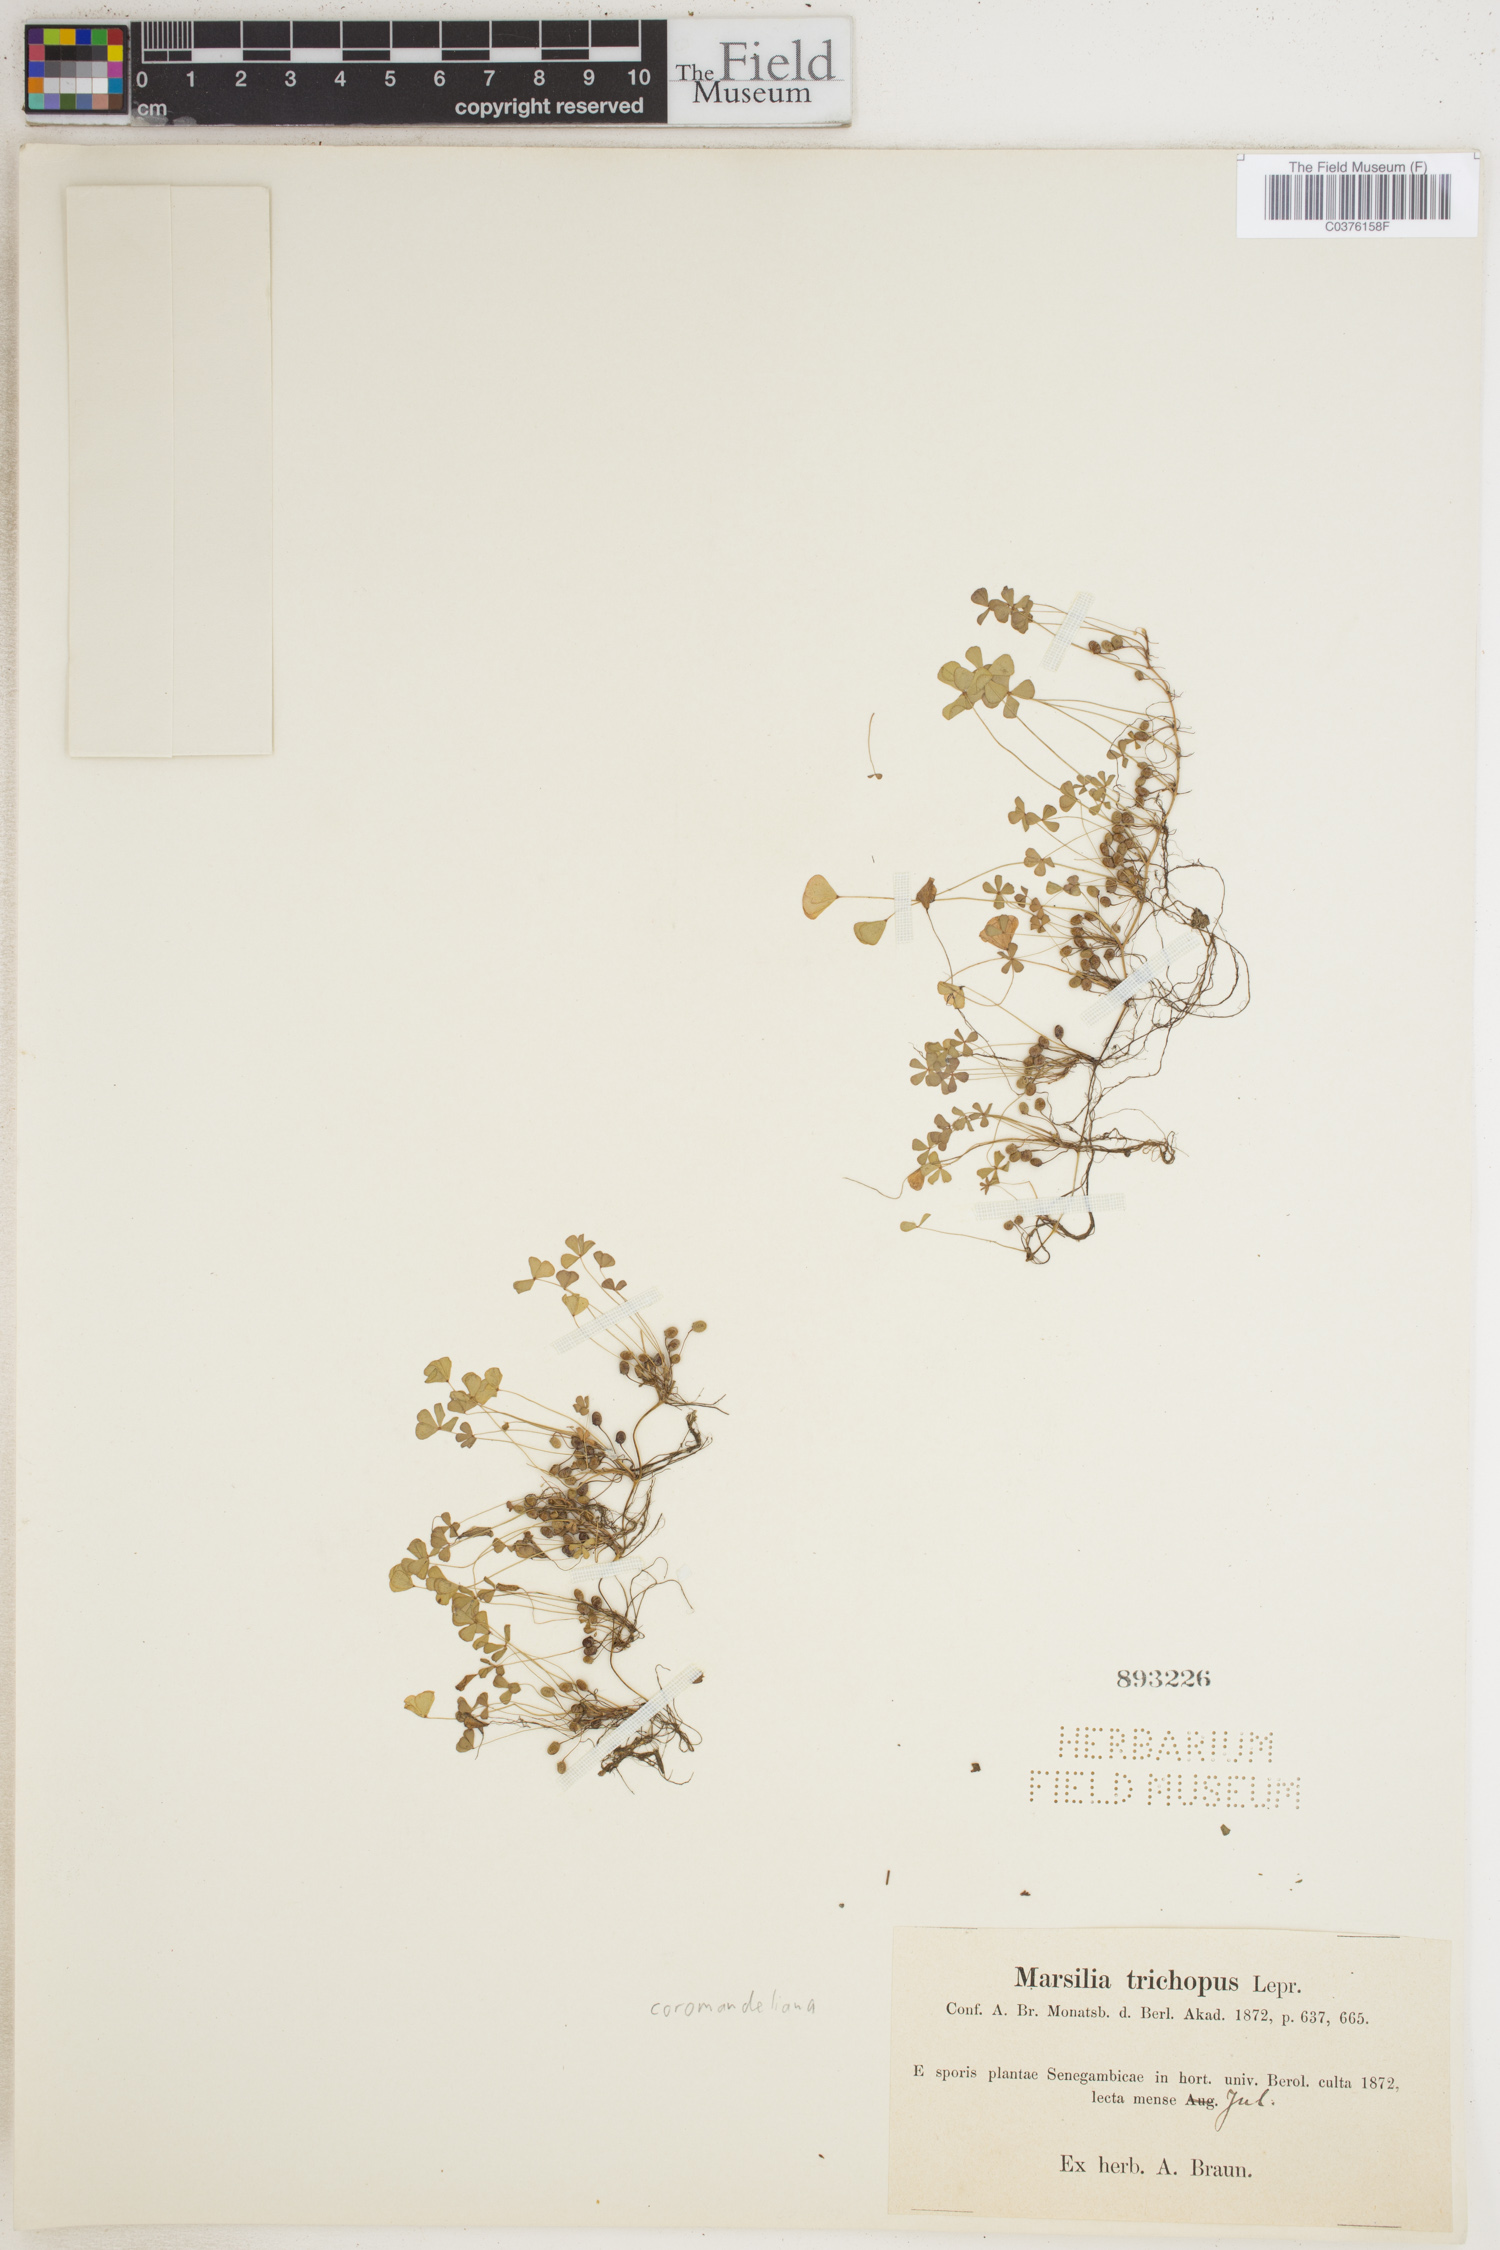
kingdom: Plantae
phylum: Tracheophyta
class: Polypodiopsida
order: Salviniales
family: Marsileaceae
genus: Marsilea
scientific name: Marsilea coromandelina
